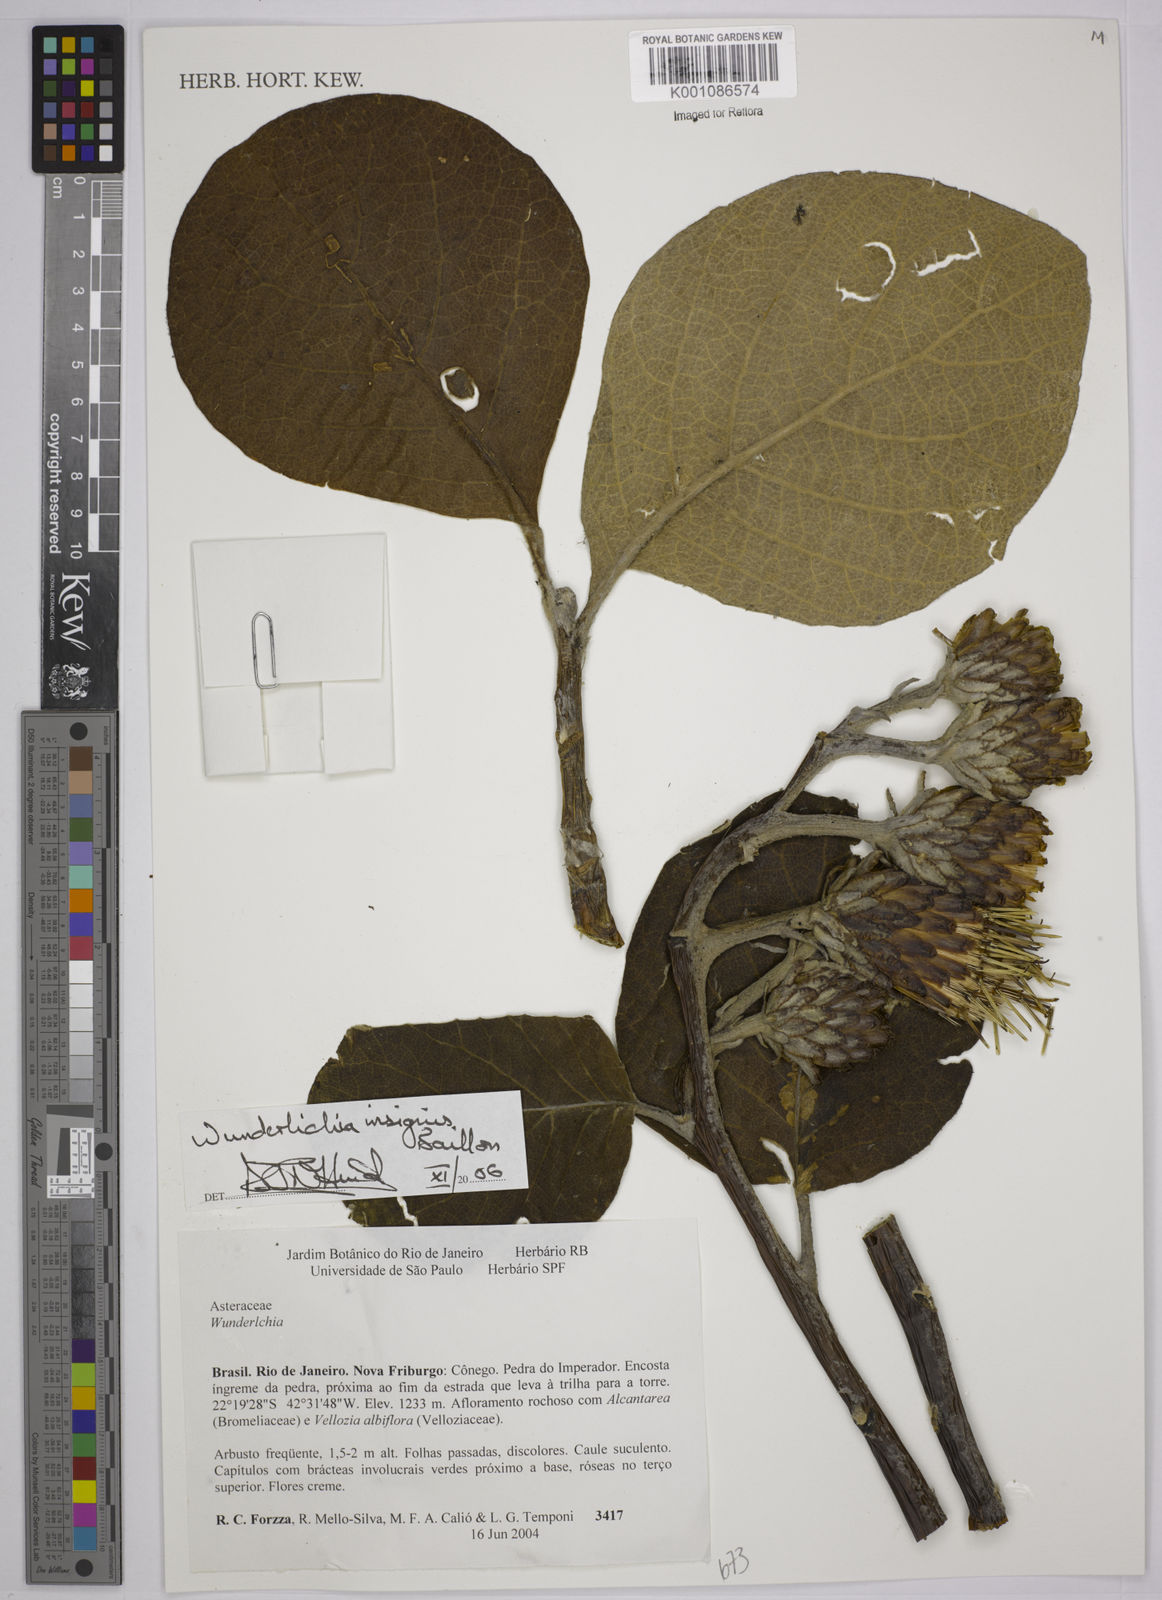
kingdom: Plantae
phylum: Tracheophyta
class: Magnoliopsida
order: Asterales
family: Asteraceae
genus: Wunderlichia
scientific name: Wunderlichia insignis
